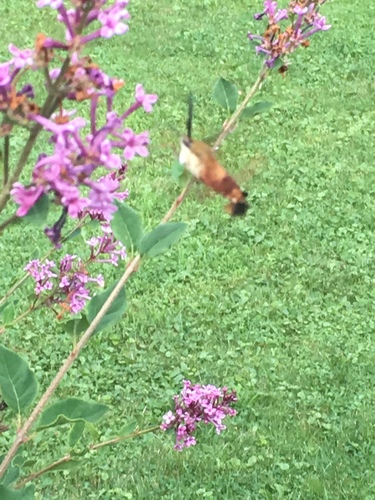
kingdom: Animalia
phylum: Arthropoda
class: Insecta
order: Lepidoptera
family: Sphingidae
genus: Hemaris
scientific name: Hemaris thysbe
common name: Common clear-wing
